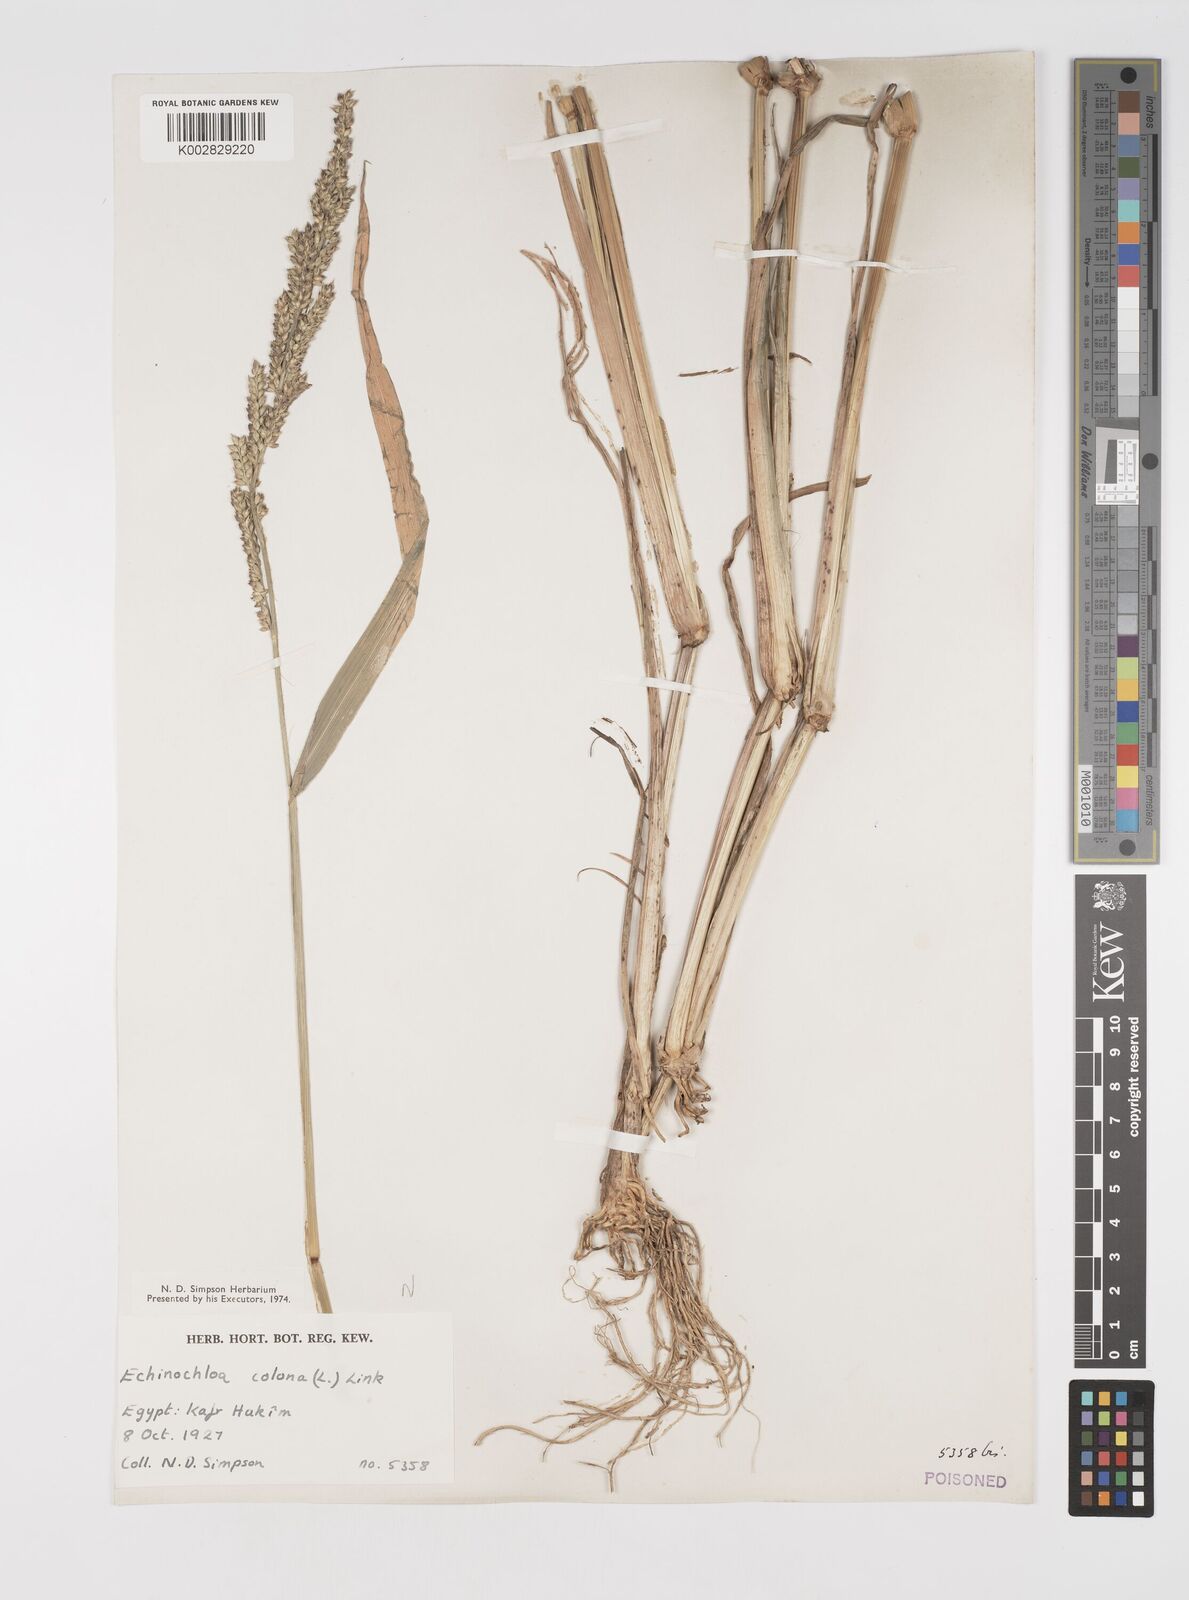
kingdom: Plantae
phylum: Tracheophyta
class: Liliopsida
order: Poales
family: Poaceae
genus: Echinochloa
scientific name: Echinochloa crus-galli
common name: Cockspur
